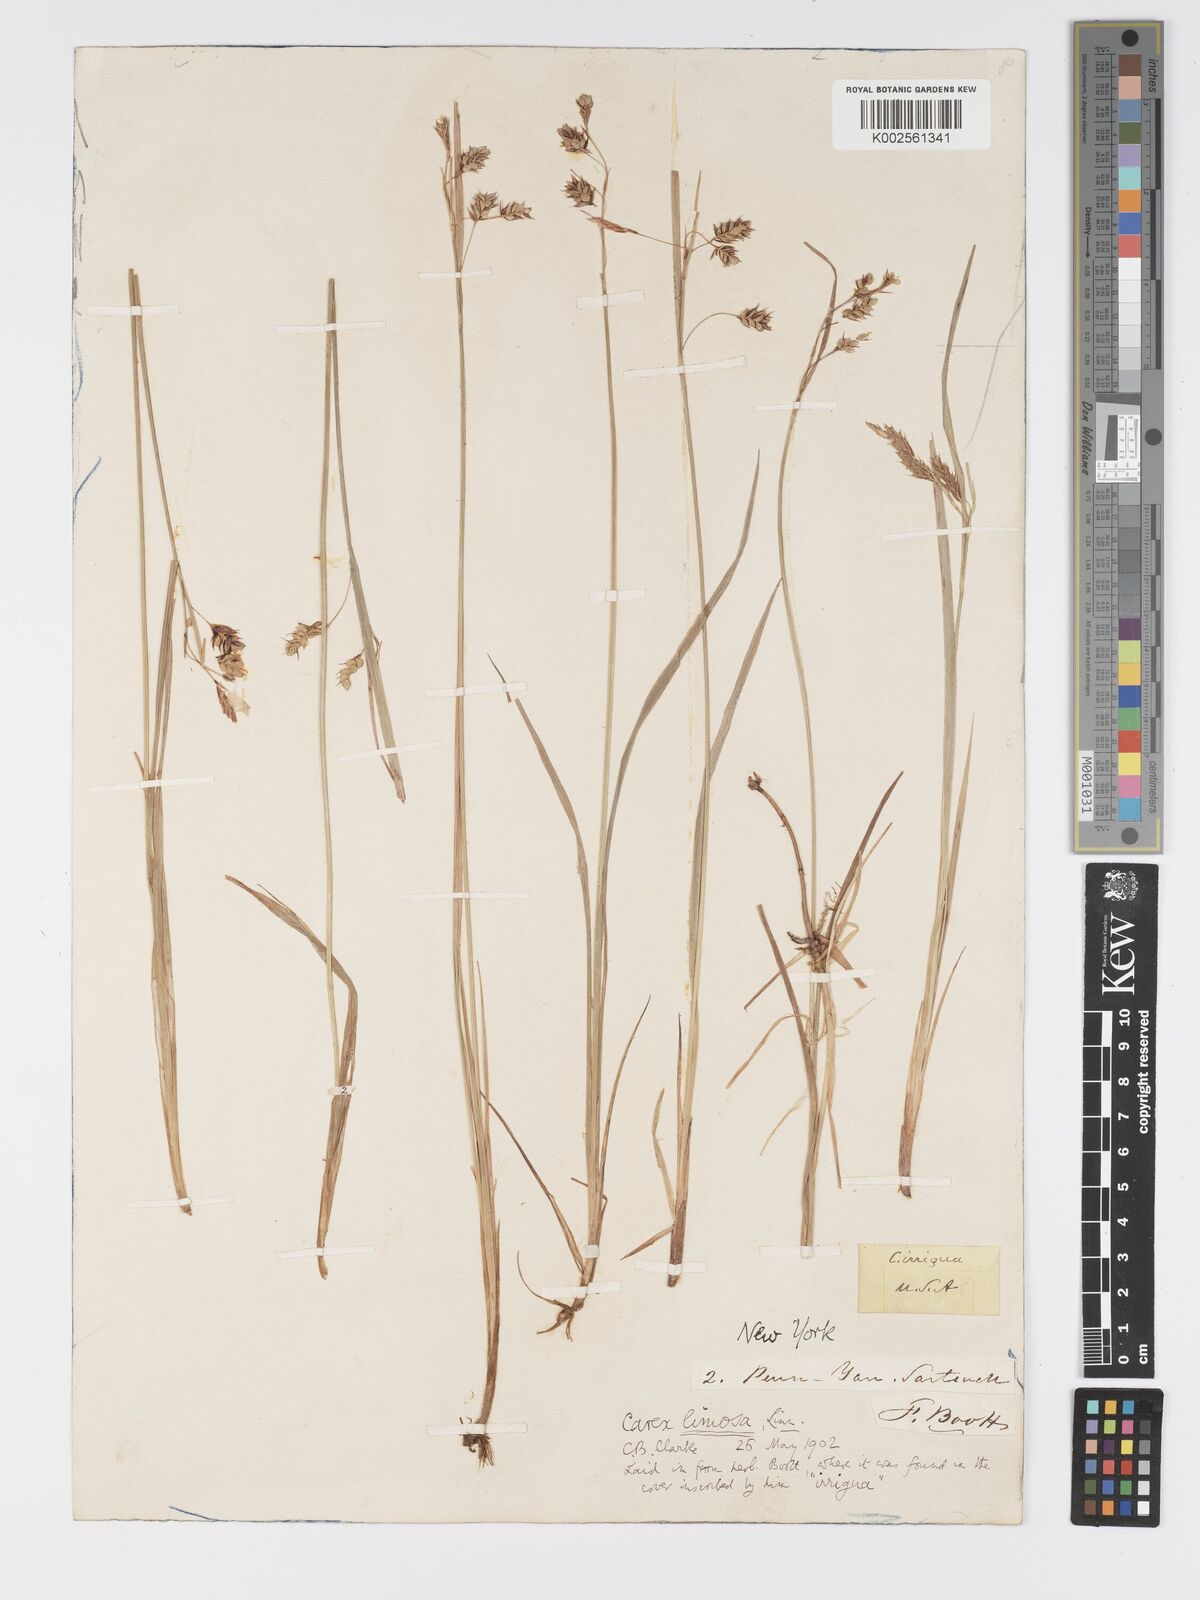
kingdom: Plantae
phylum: Tracheophyta
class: Liliopsida
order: Poales
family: Cyperaceae
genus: Carex
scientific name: Carex magellanica
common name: Bog sedge
